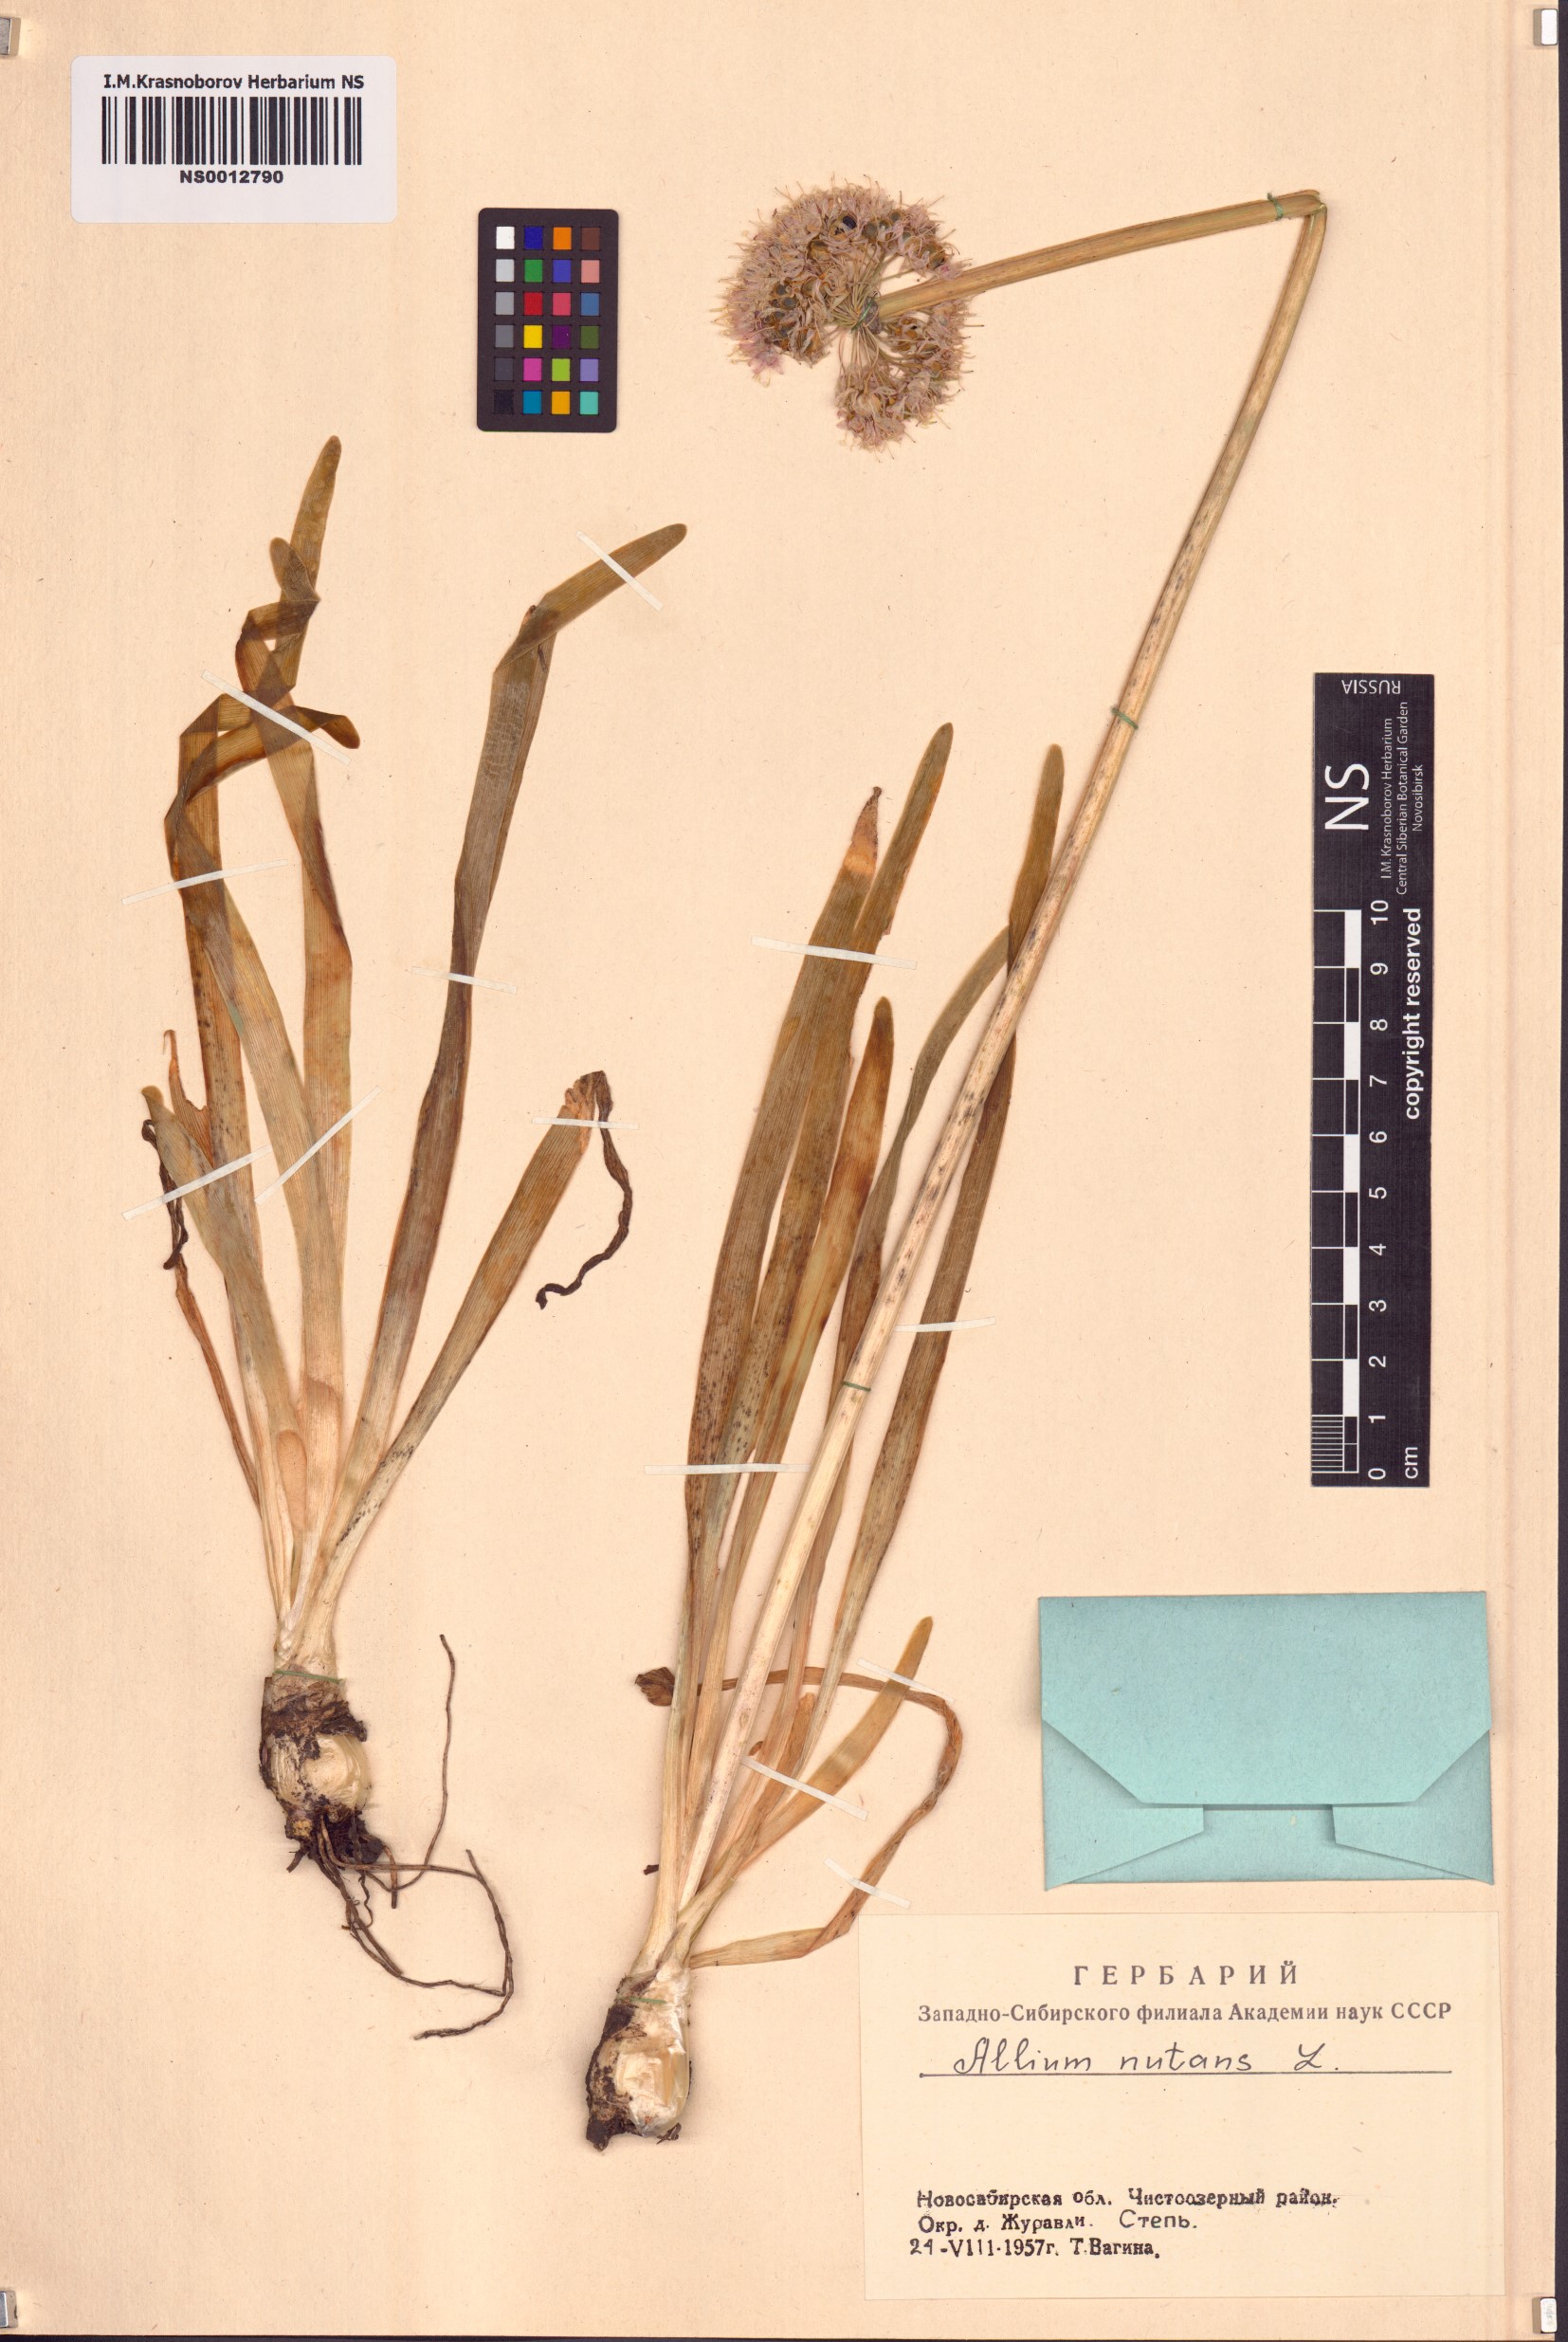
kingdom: Plantae
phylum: Tracheophyta
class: Liliopsida
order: Asparagales
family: Amaryllidaceae
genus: Allium
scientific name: Allium nutans
